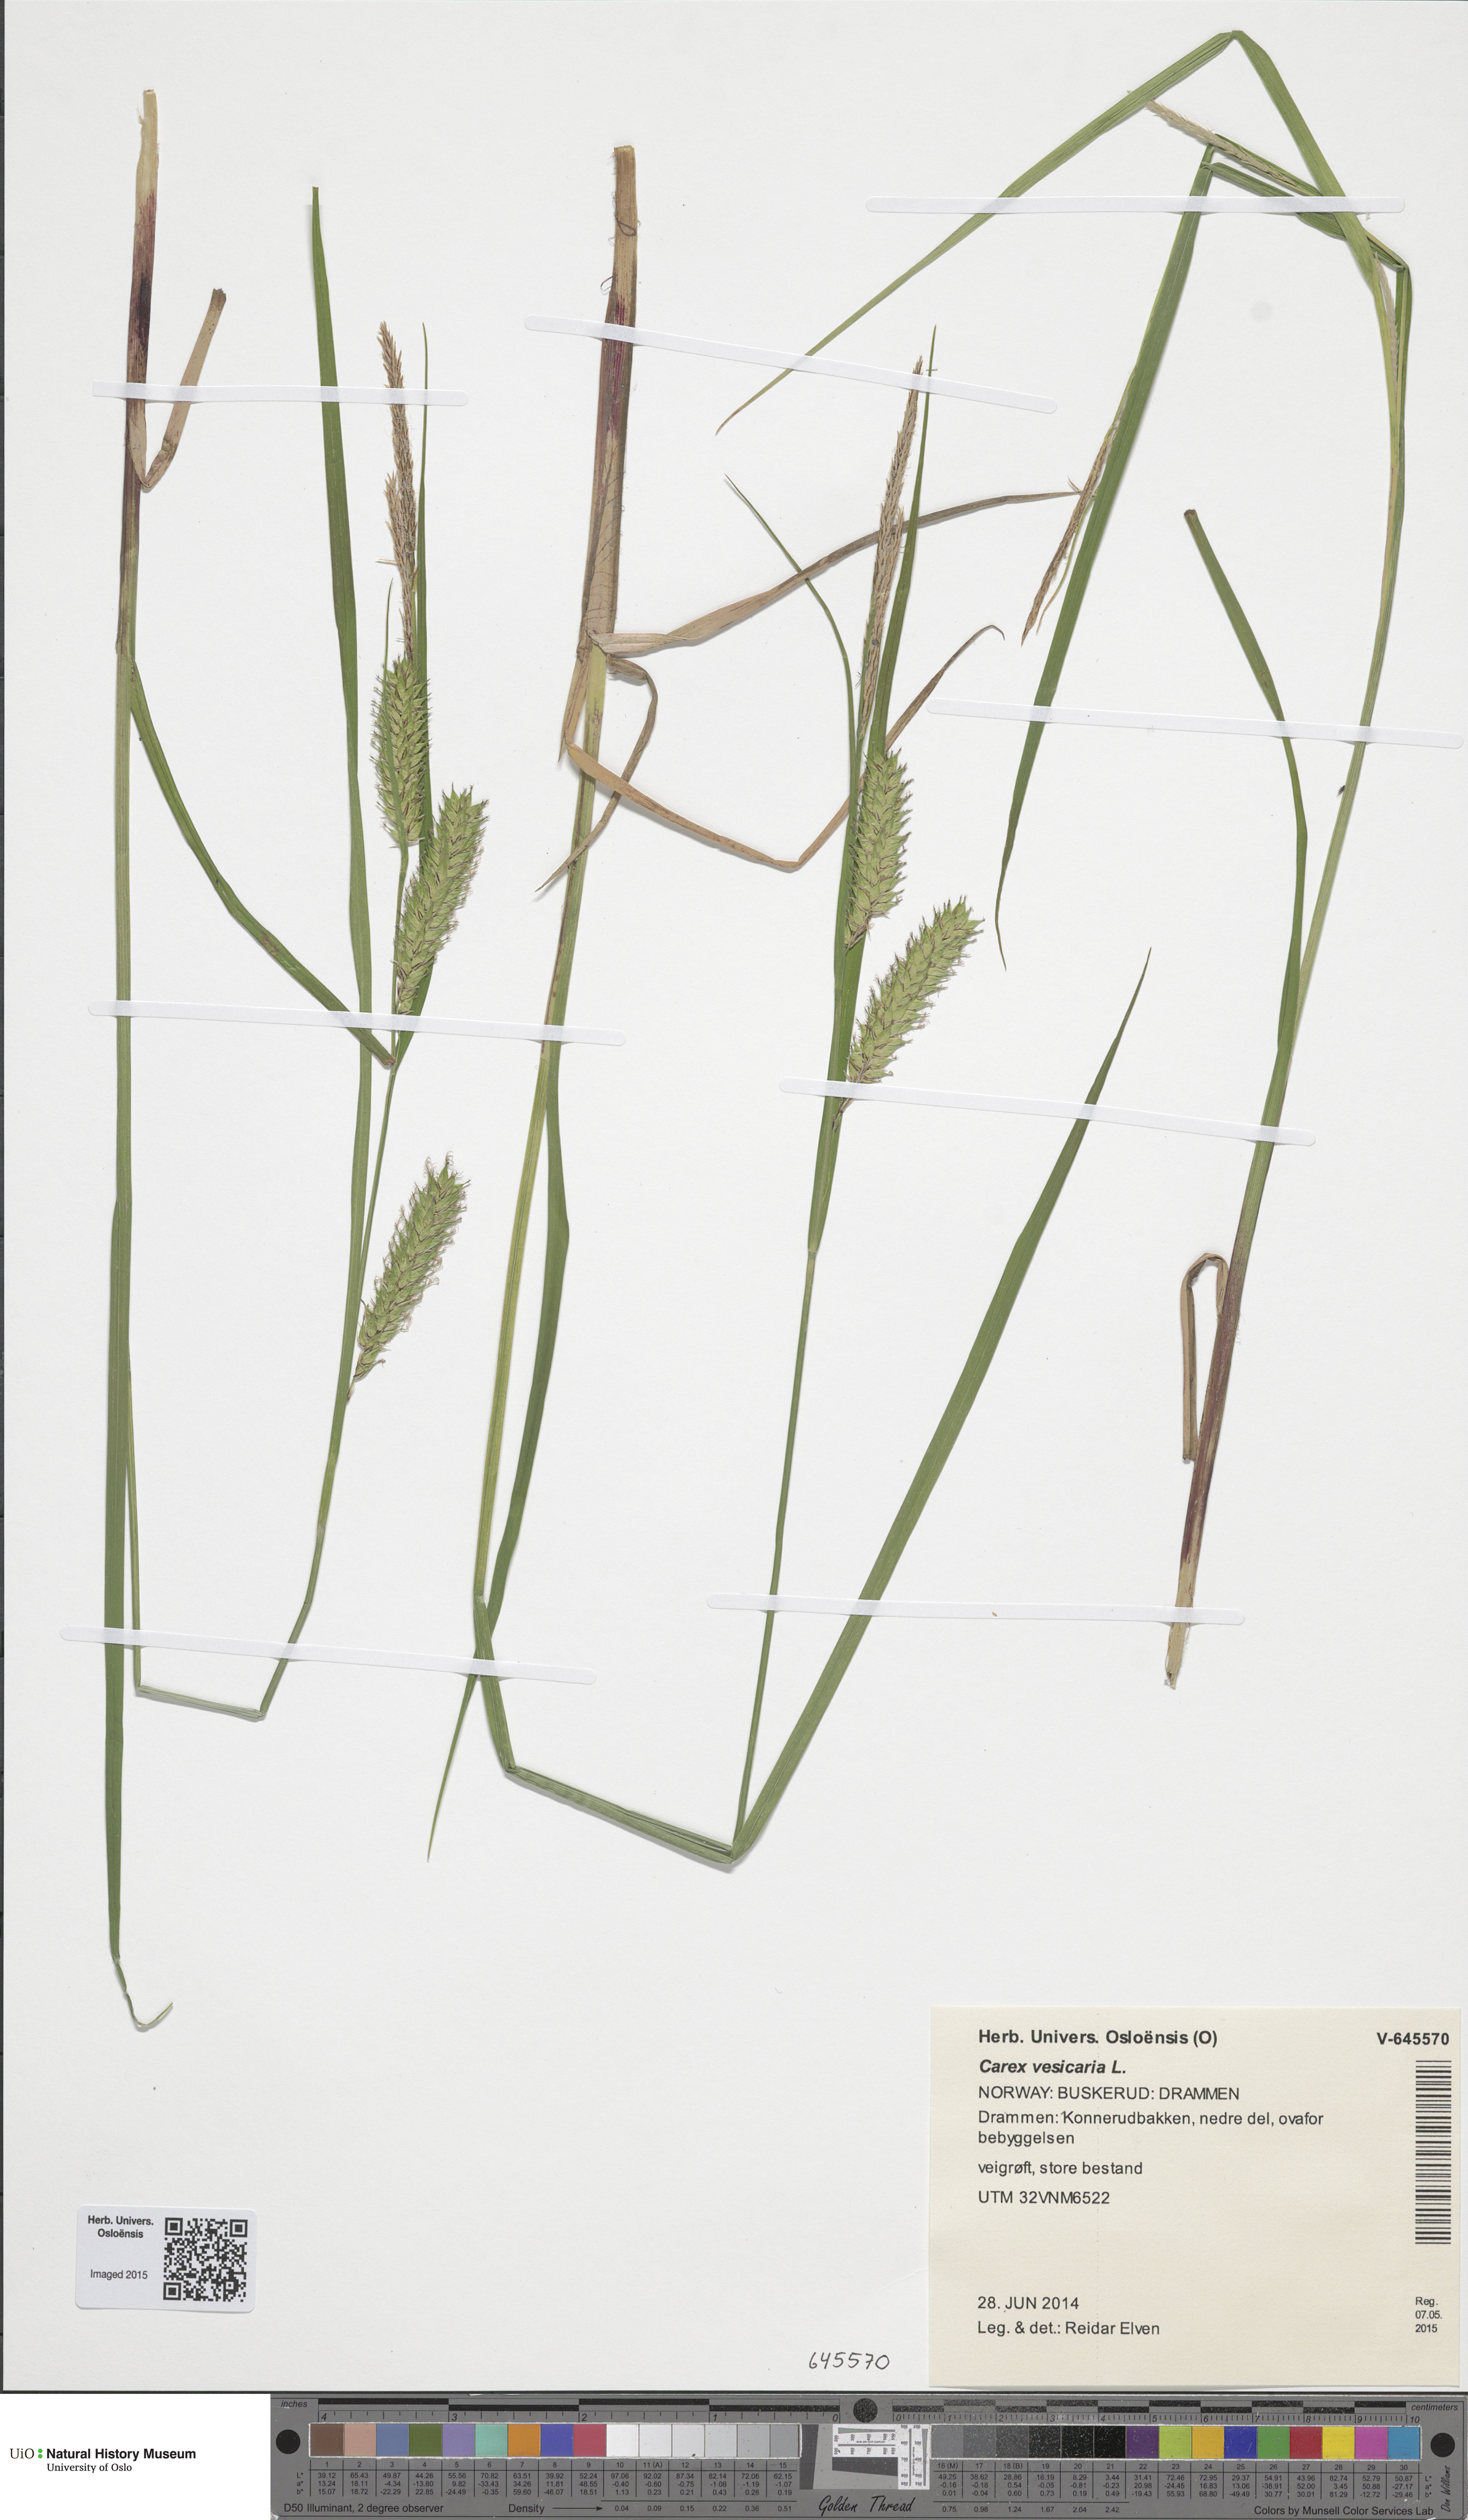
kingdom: Plantae
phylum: Tracheophyta
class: Liliopsida
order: Poales
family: Cyperaceae
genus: Carex
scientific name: Carex vesicaria
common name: Bladder-sedge
